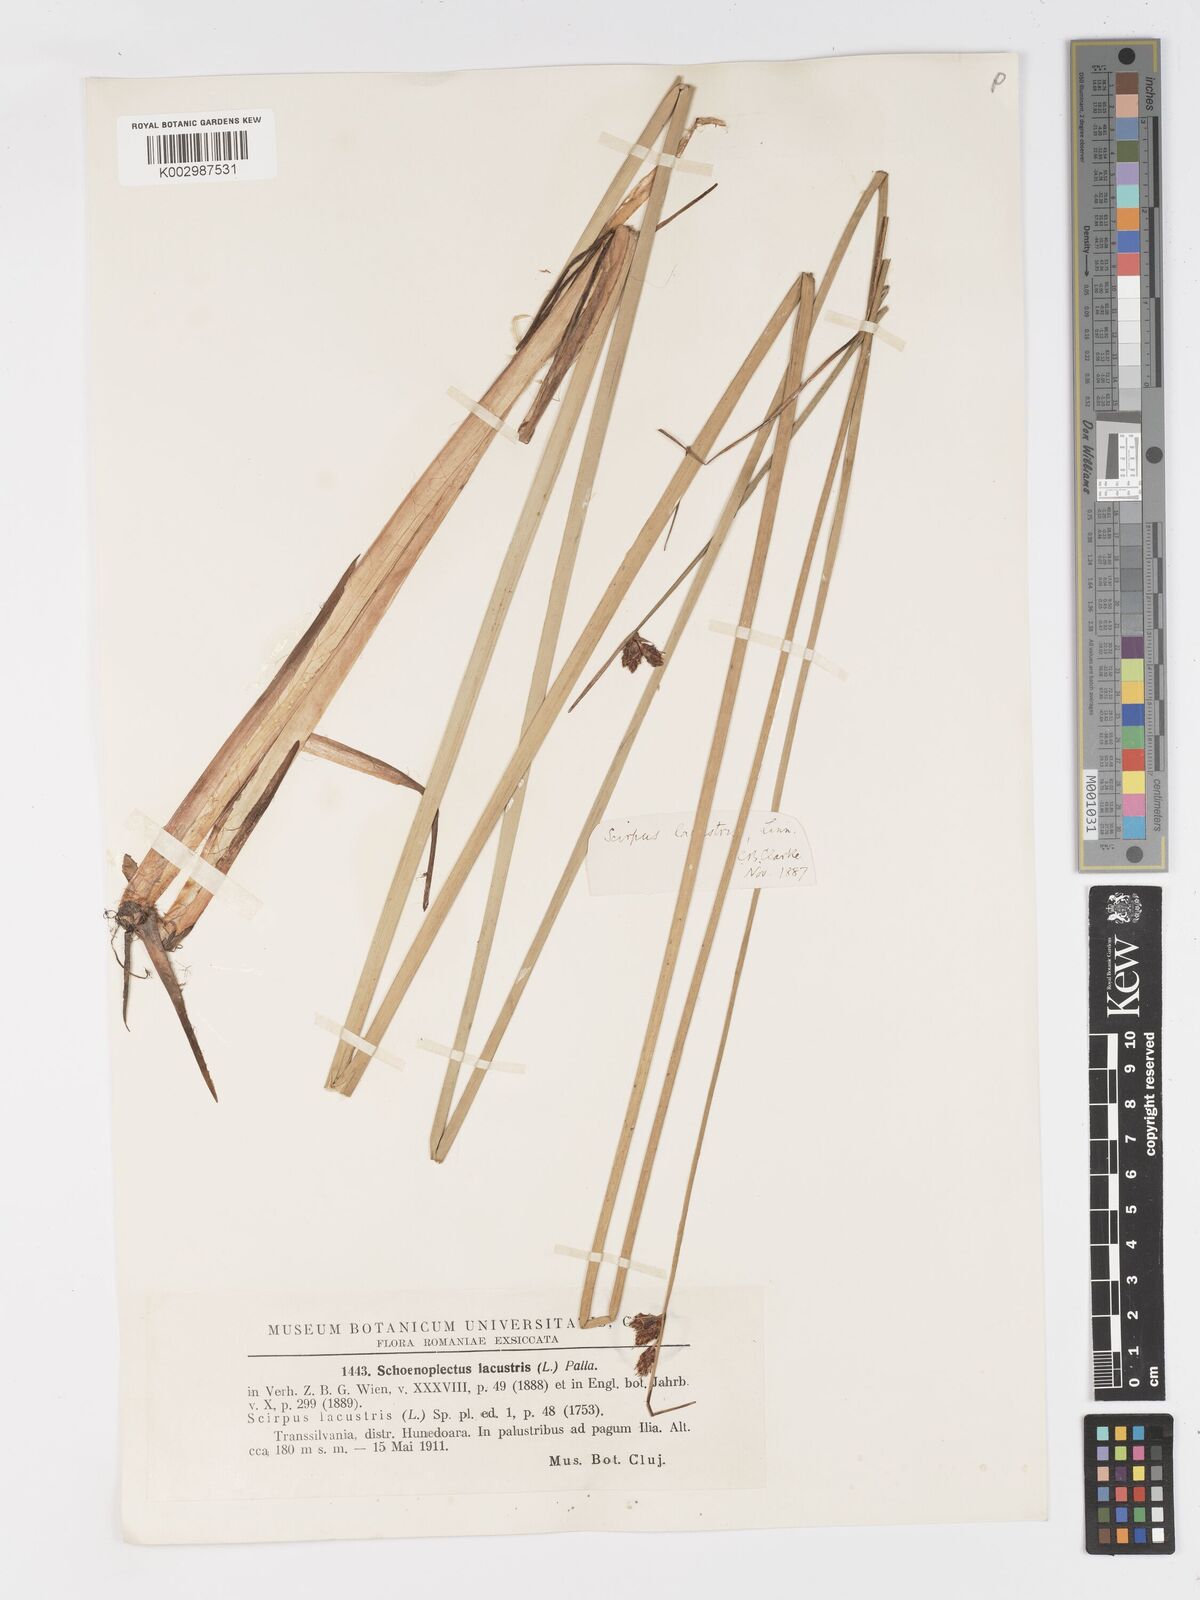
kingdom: Plantae
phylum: Tracheophyta
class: Liliopsida
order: Poales
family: Cyperaceae
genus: Schoenoplectus
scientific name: Schoenoplectus lacustris
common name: Common club-rush
